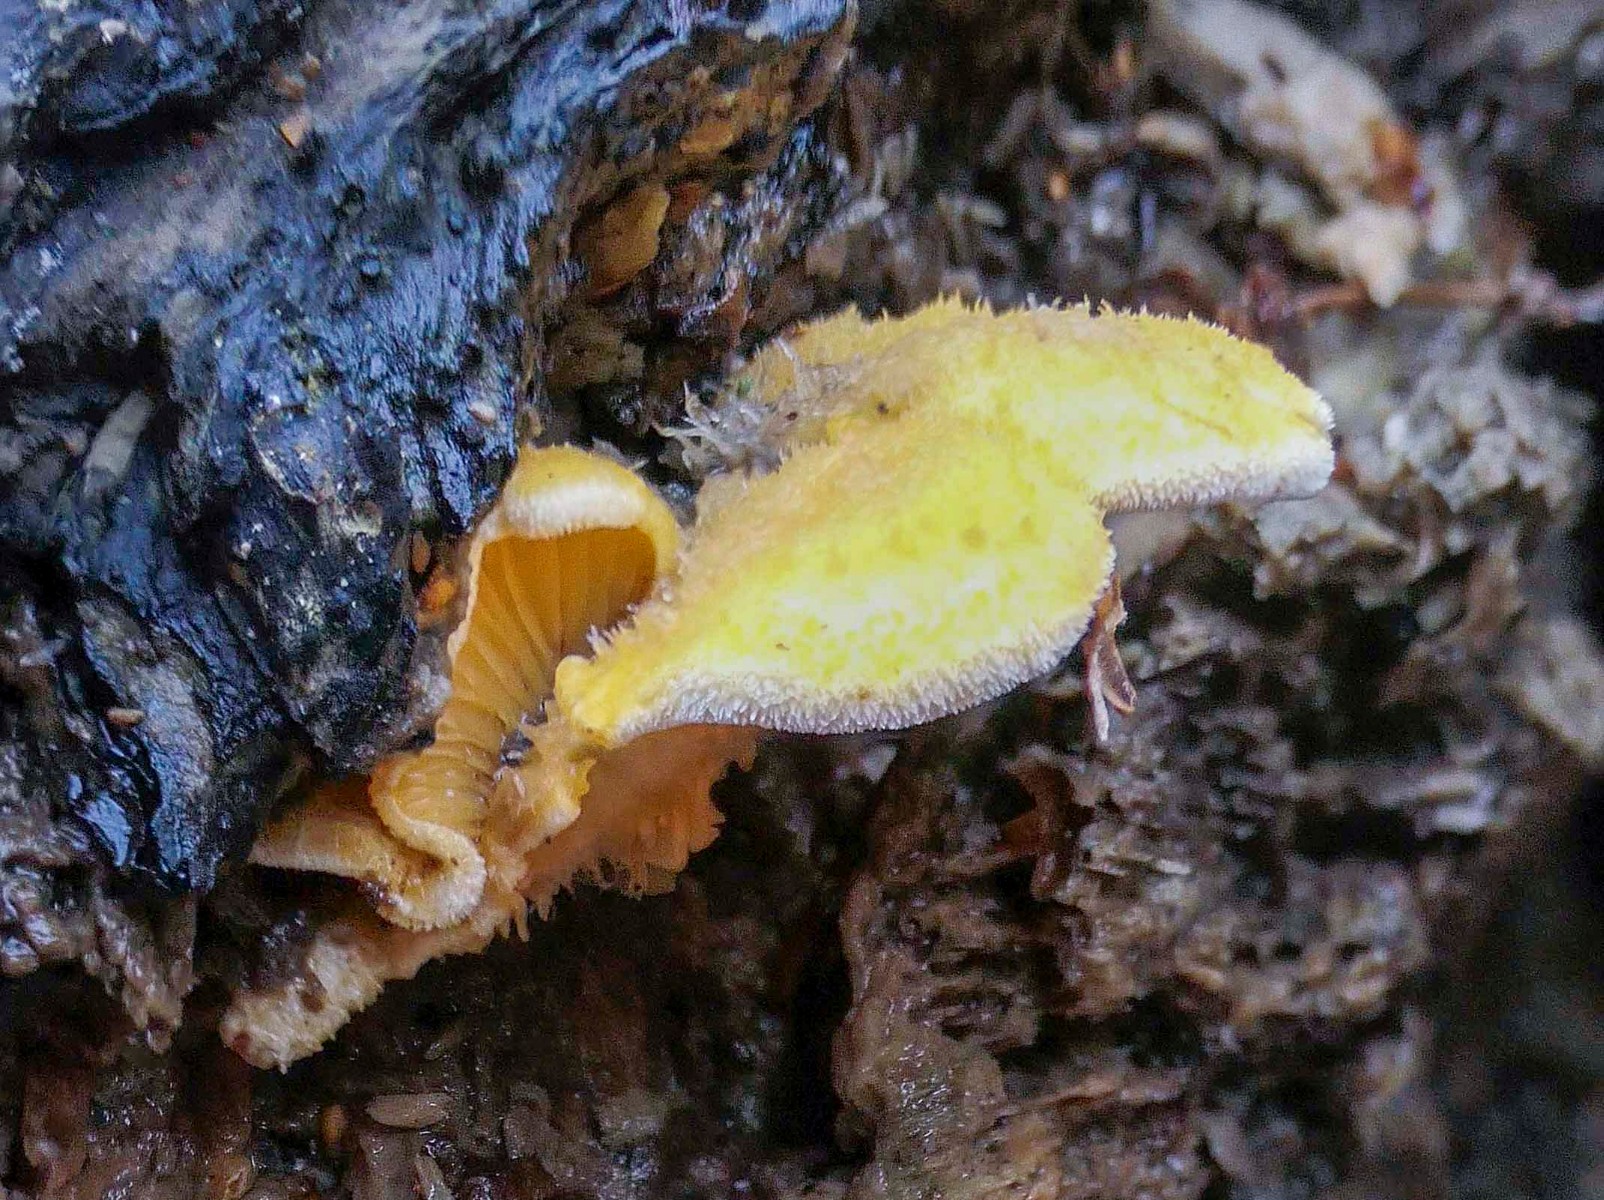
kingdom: Fungi
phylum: Basidiomycota
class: Agaricomycetes
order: Agaricales
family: Phyllotopsidaceae
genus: Phyllotopsis
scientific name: Phyllotopsis nidulans
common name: okkerblad
